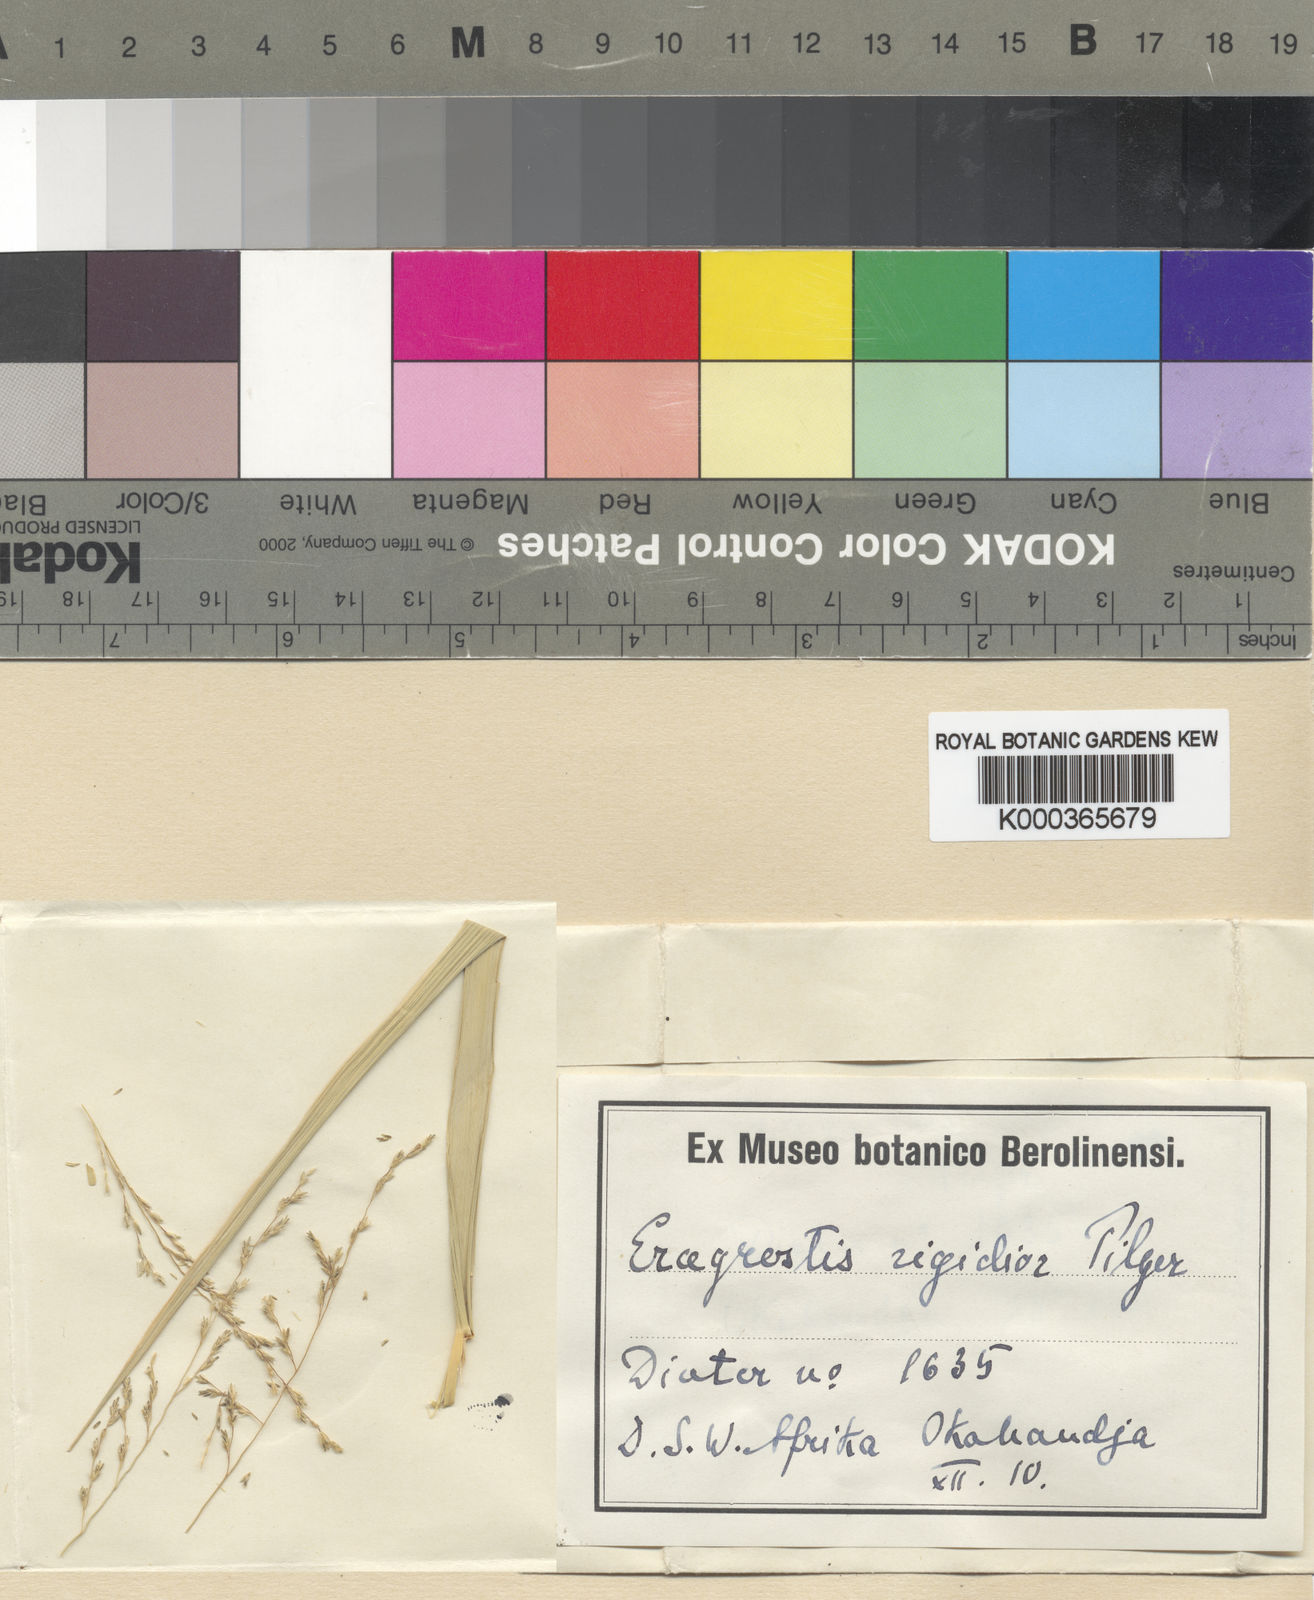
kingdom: Plantae
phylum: Tracheophyta
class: Liliopsida
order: Poales
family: Poaceae
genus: Eragrostis
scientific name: Eragrostis cylindriflora
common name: Cylinderflower lovegrass
